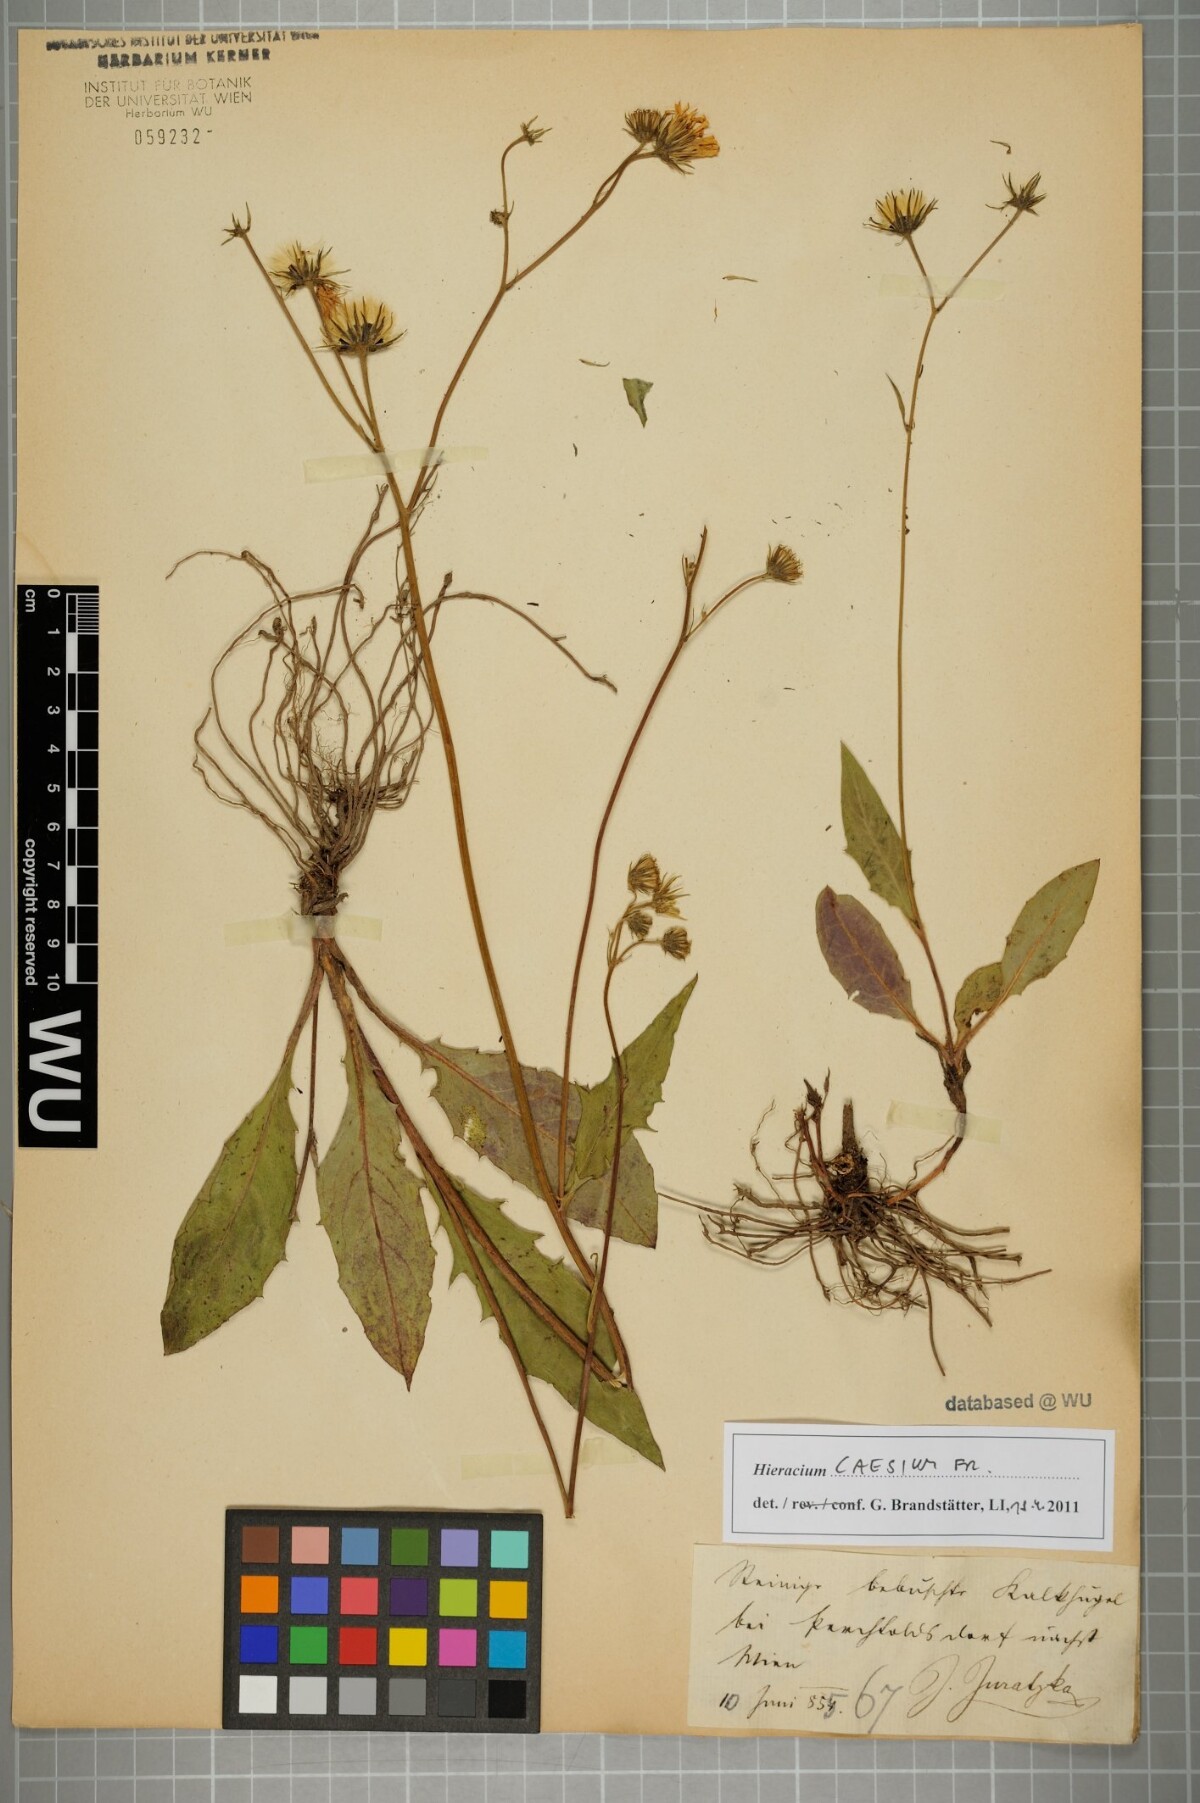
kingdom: Plantae
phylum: Tracheophyta
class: Magnoliopsida
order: Asterales
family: Asteraceae
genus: Hieracium
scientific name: Hieracium caesium
